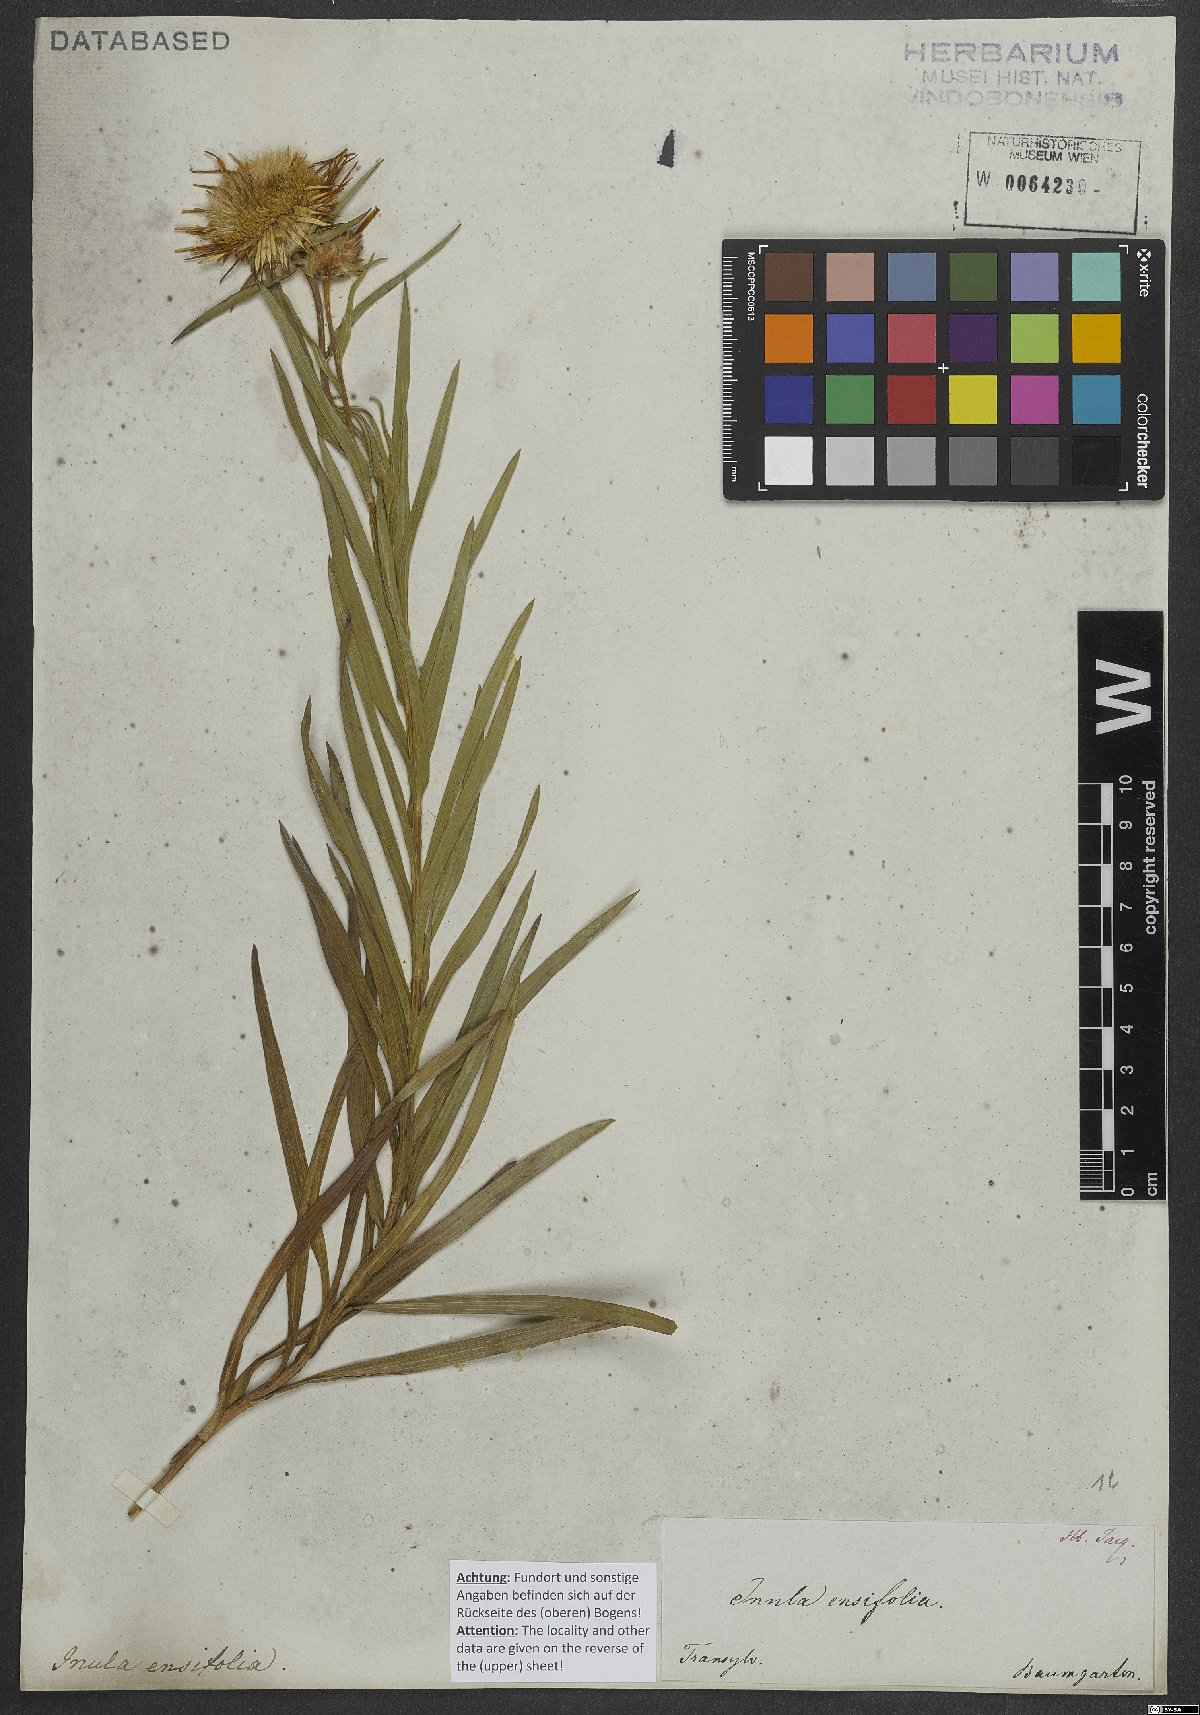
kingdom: Plantae
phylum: Tracheophyta
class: Magnoliopsida
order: Asterales
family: Asteraceae
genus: Pentanema
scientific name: Pentanema ensifolium
